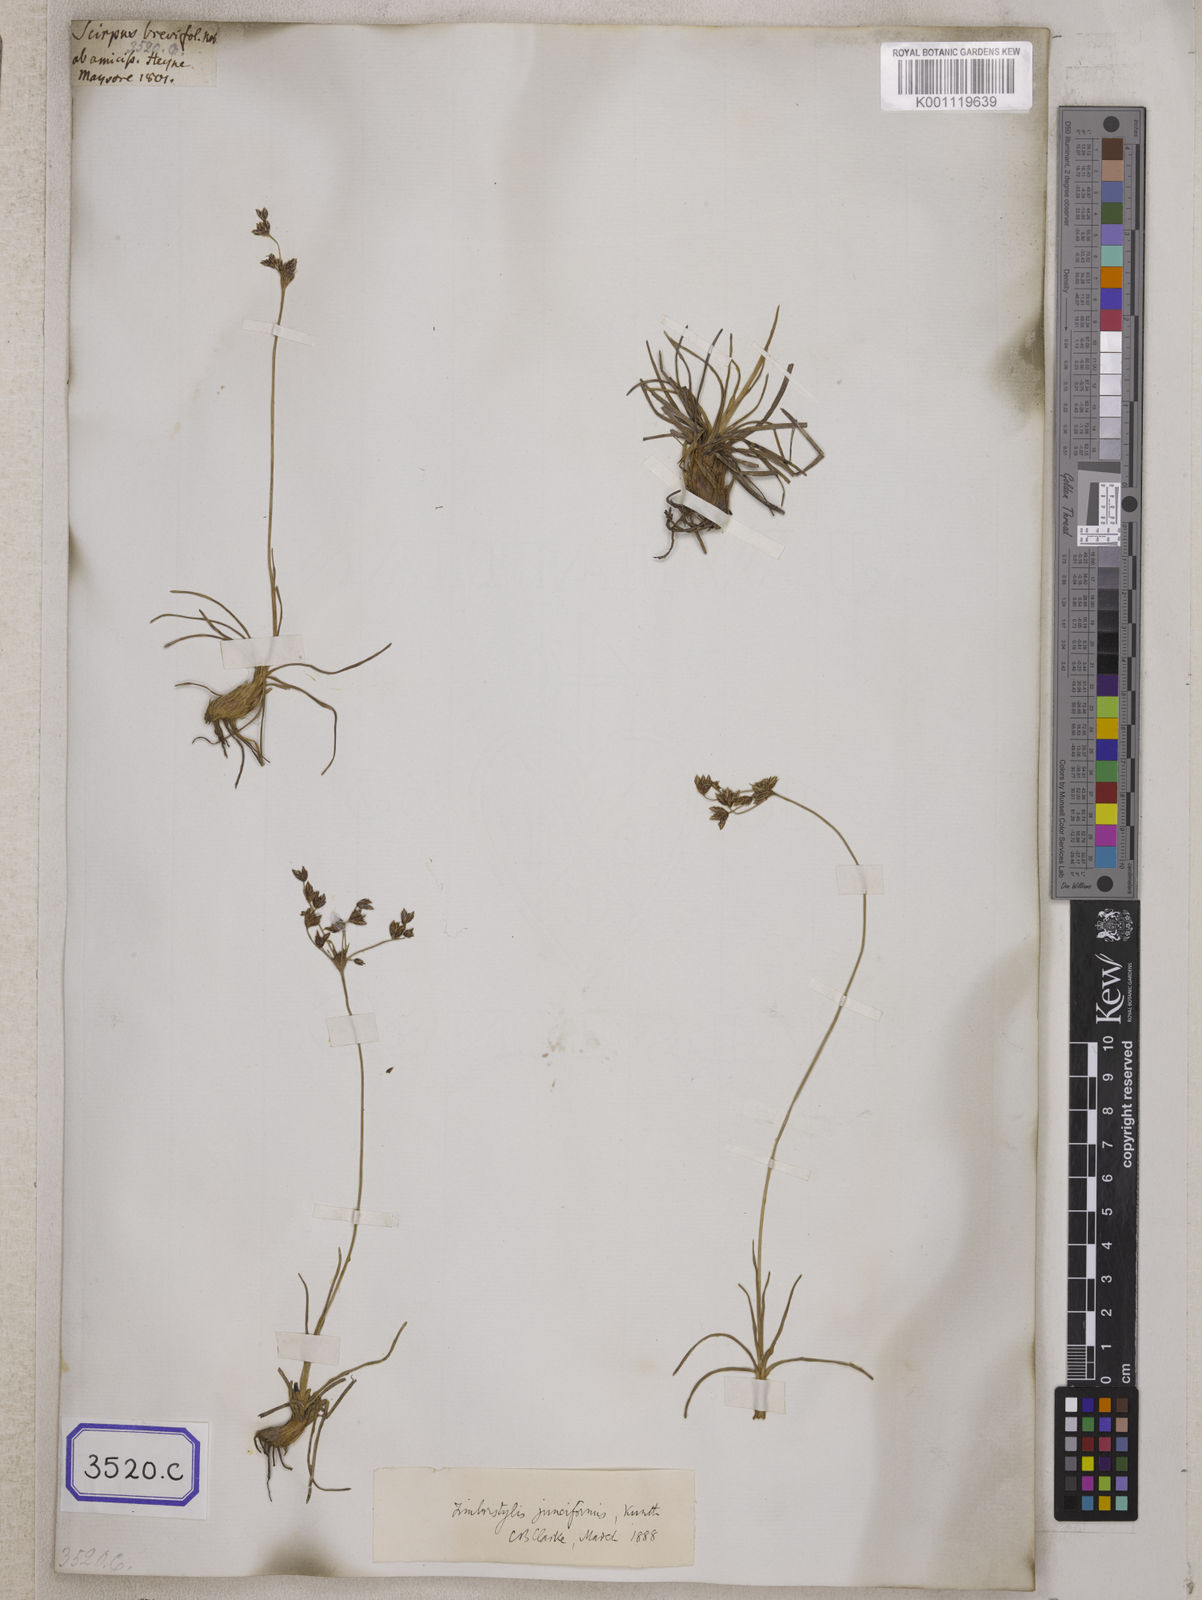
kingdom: Plantae
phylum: Tracheophyta
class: Liliopsida
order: Poales
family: Cyperaceae
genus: Fimbristylis
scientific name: Fimbristylis
